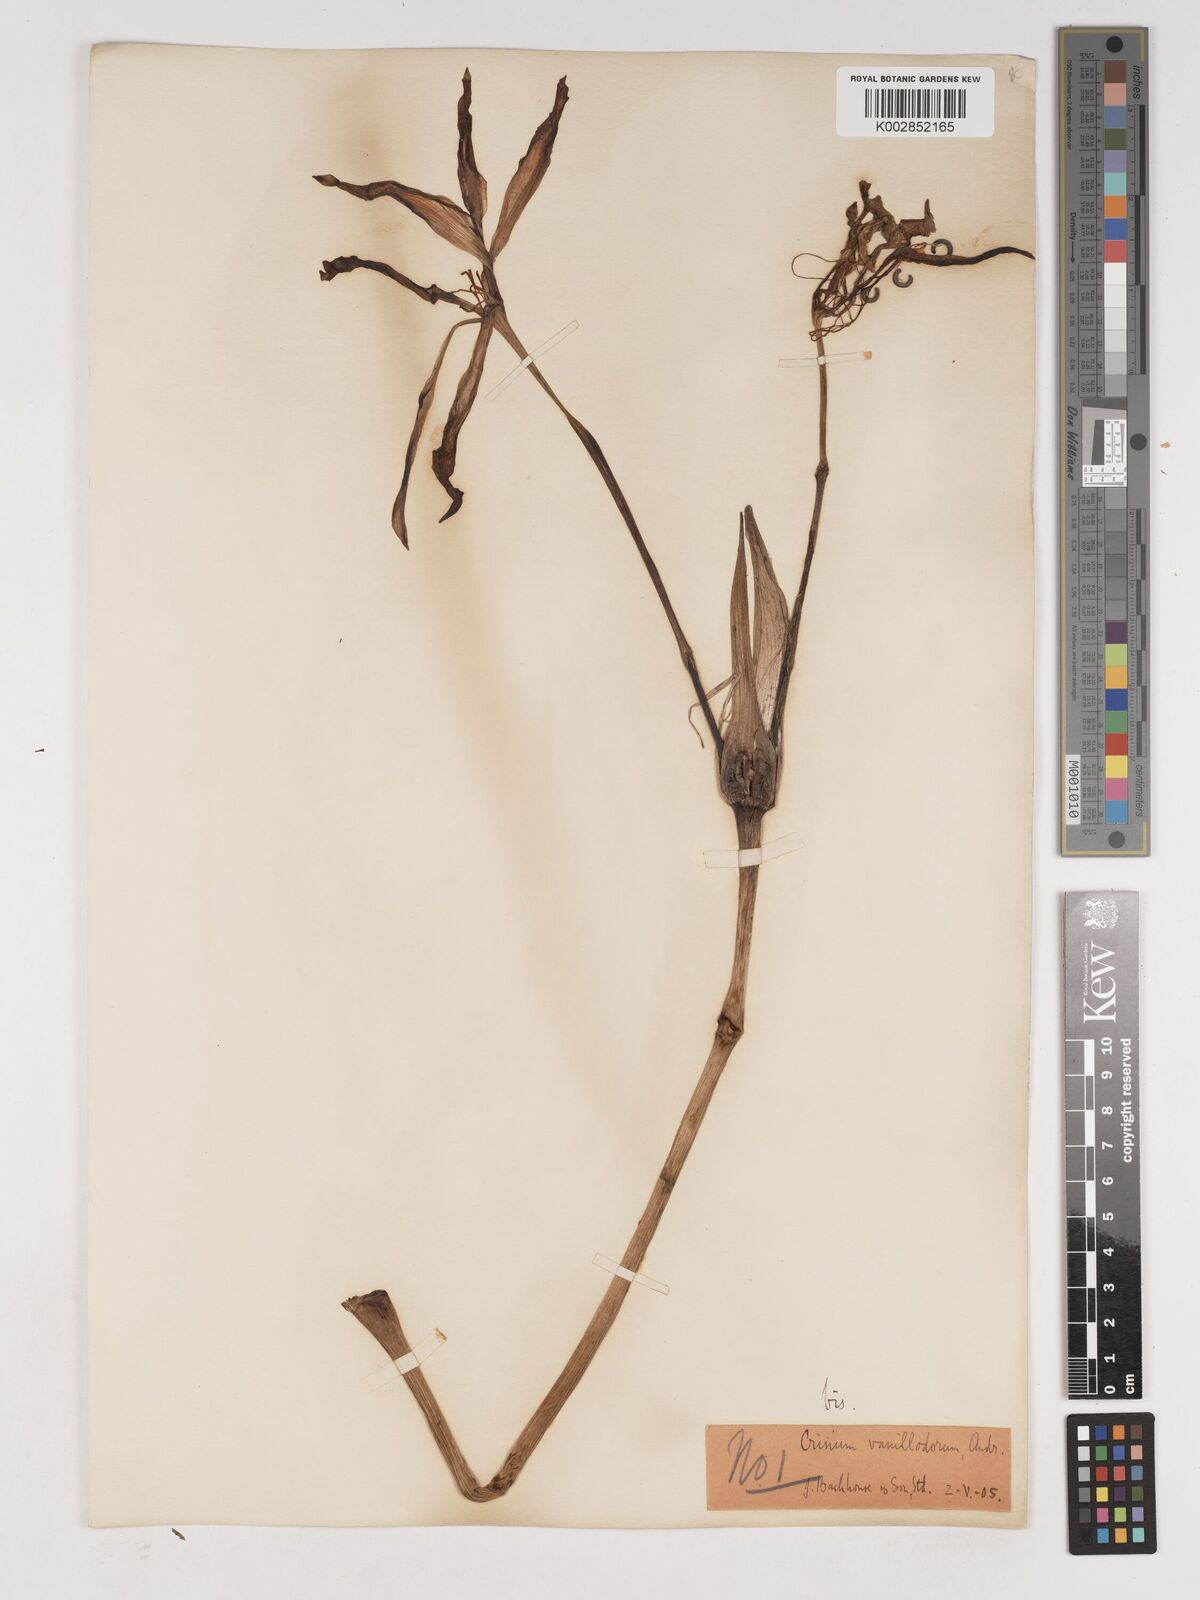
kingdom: Plantae
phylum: Tracheophyta
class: Liliopsida
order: Asparagales
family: Amaryllidaceae
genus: Crinum
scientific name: Crinum lane-poolei
